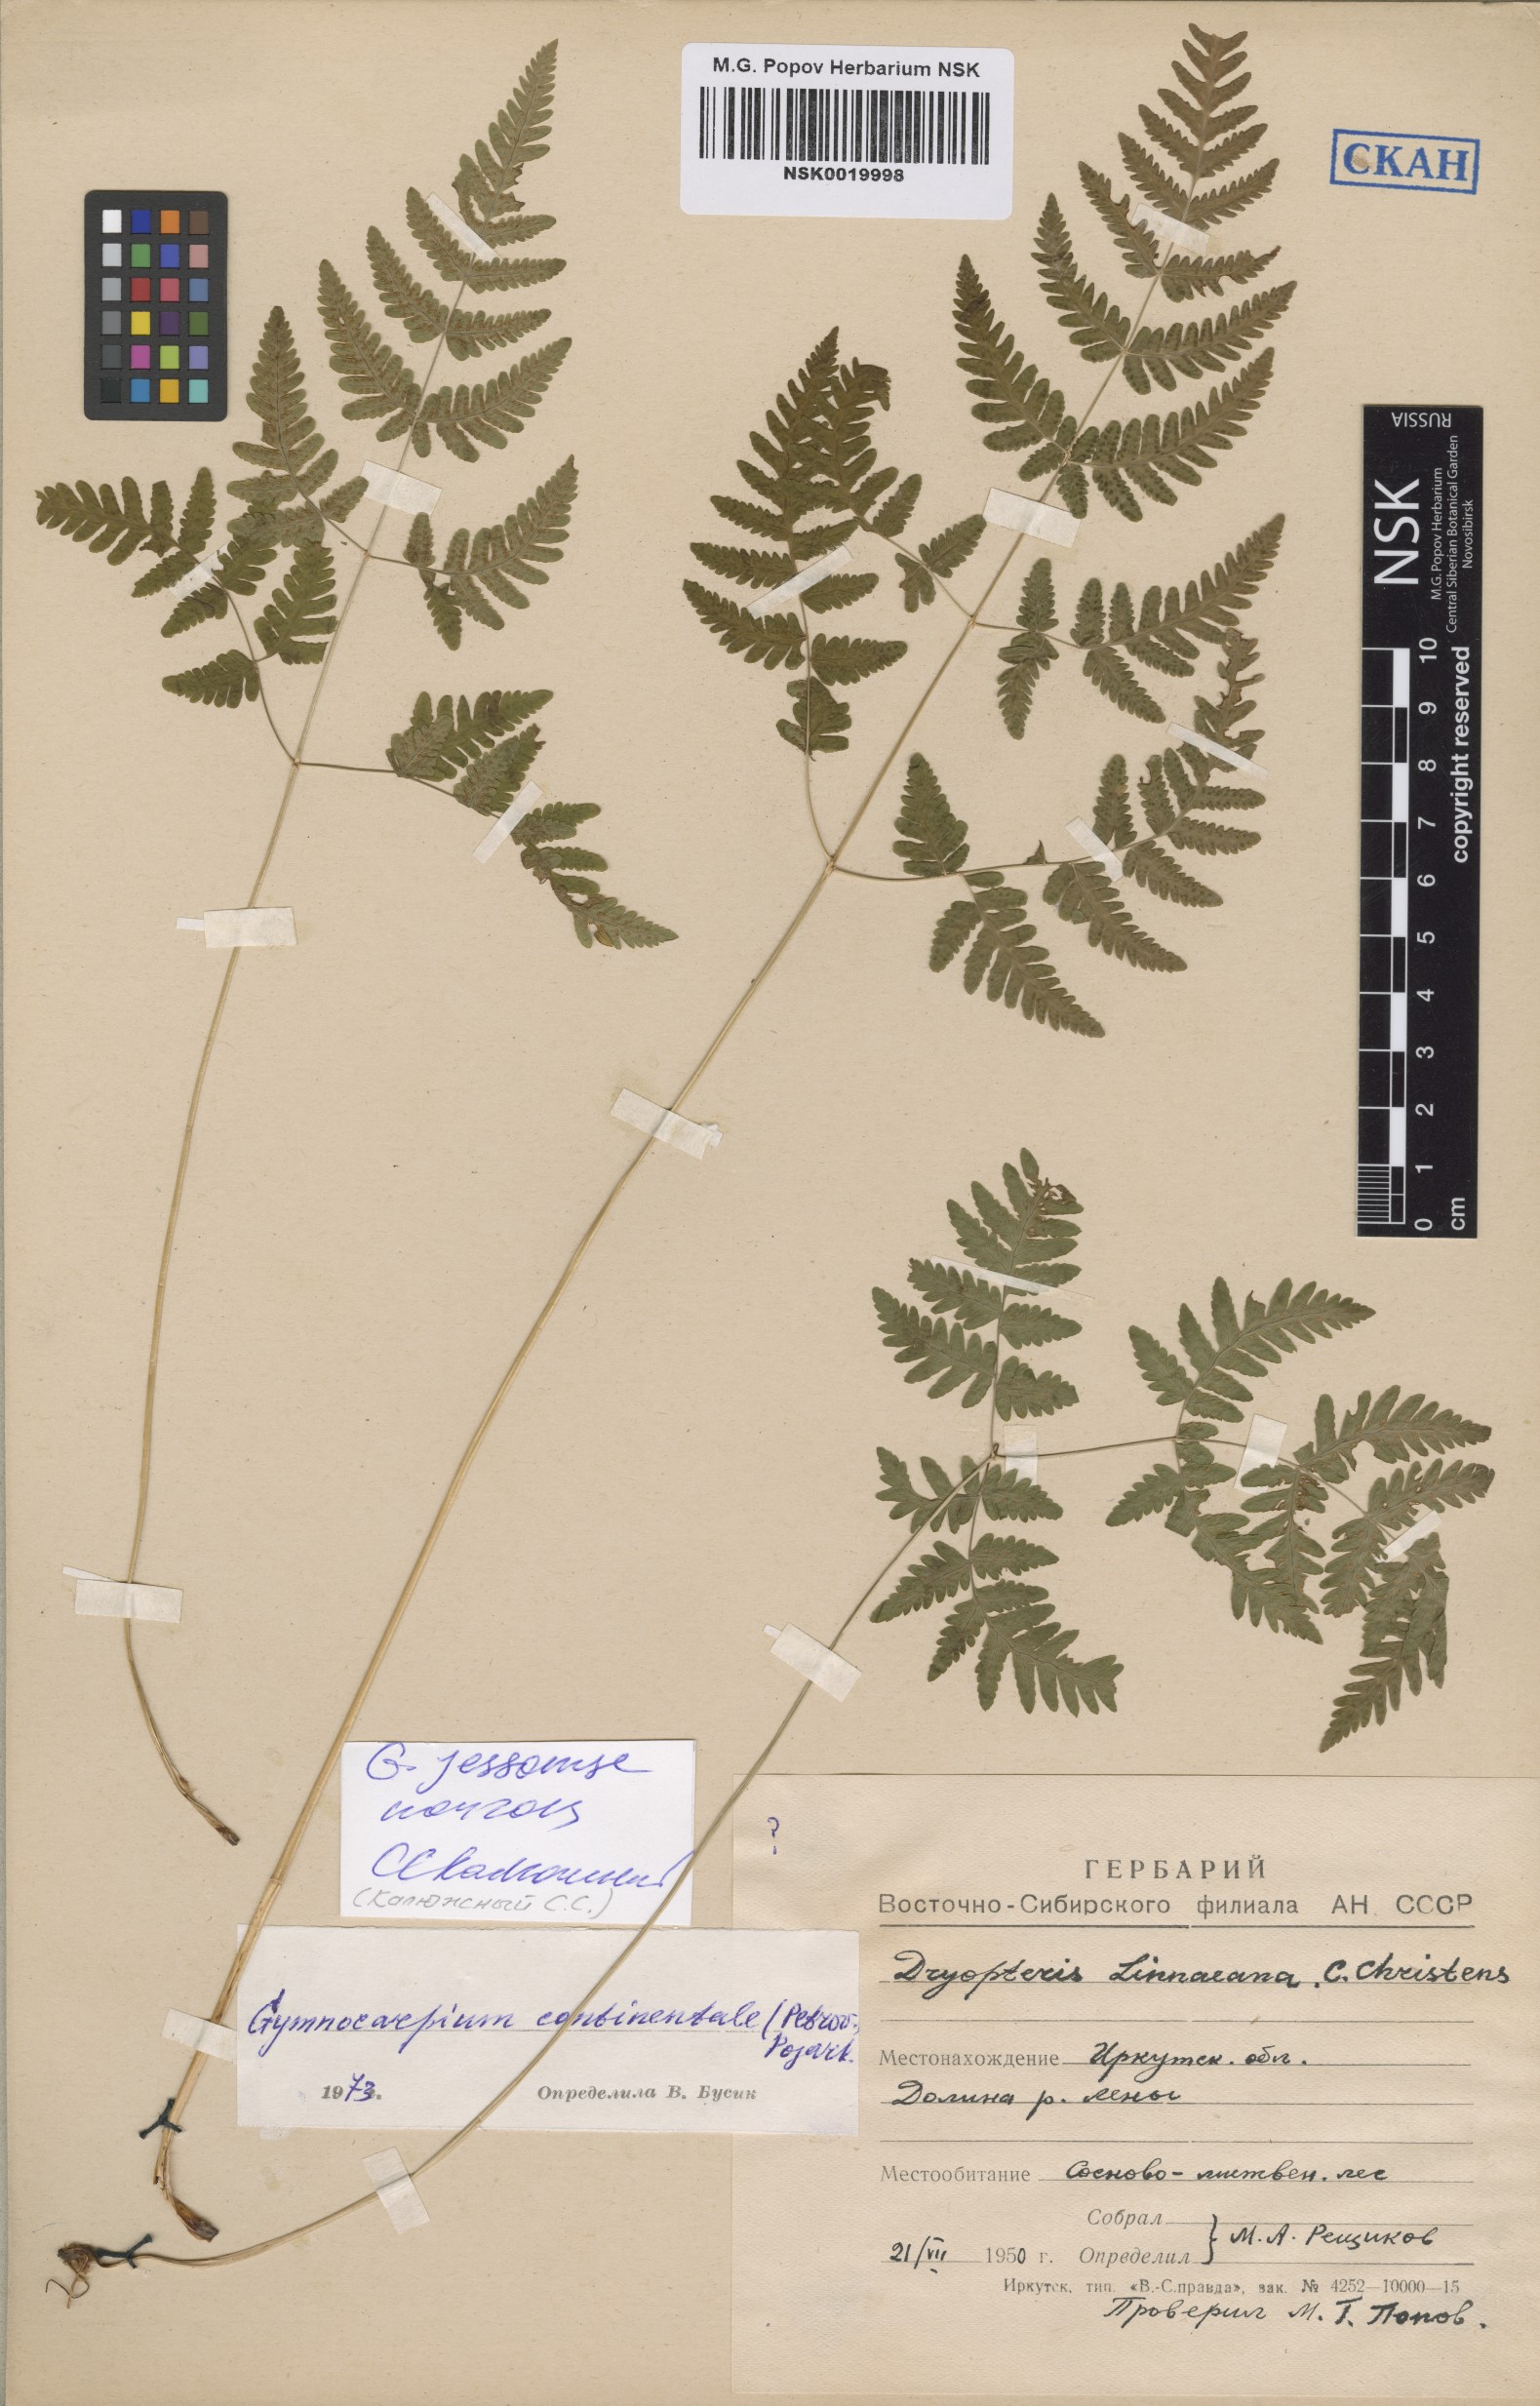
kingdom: Plantae
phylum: Tracheophyta
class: Polypodiopsida
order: Polypodiales
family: Cystopteridaceae
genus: Gymnocarpium
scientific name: Gymnocarpium jessoense
